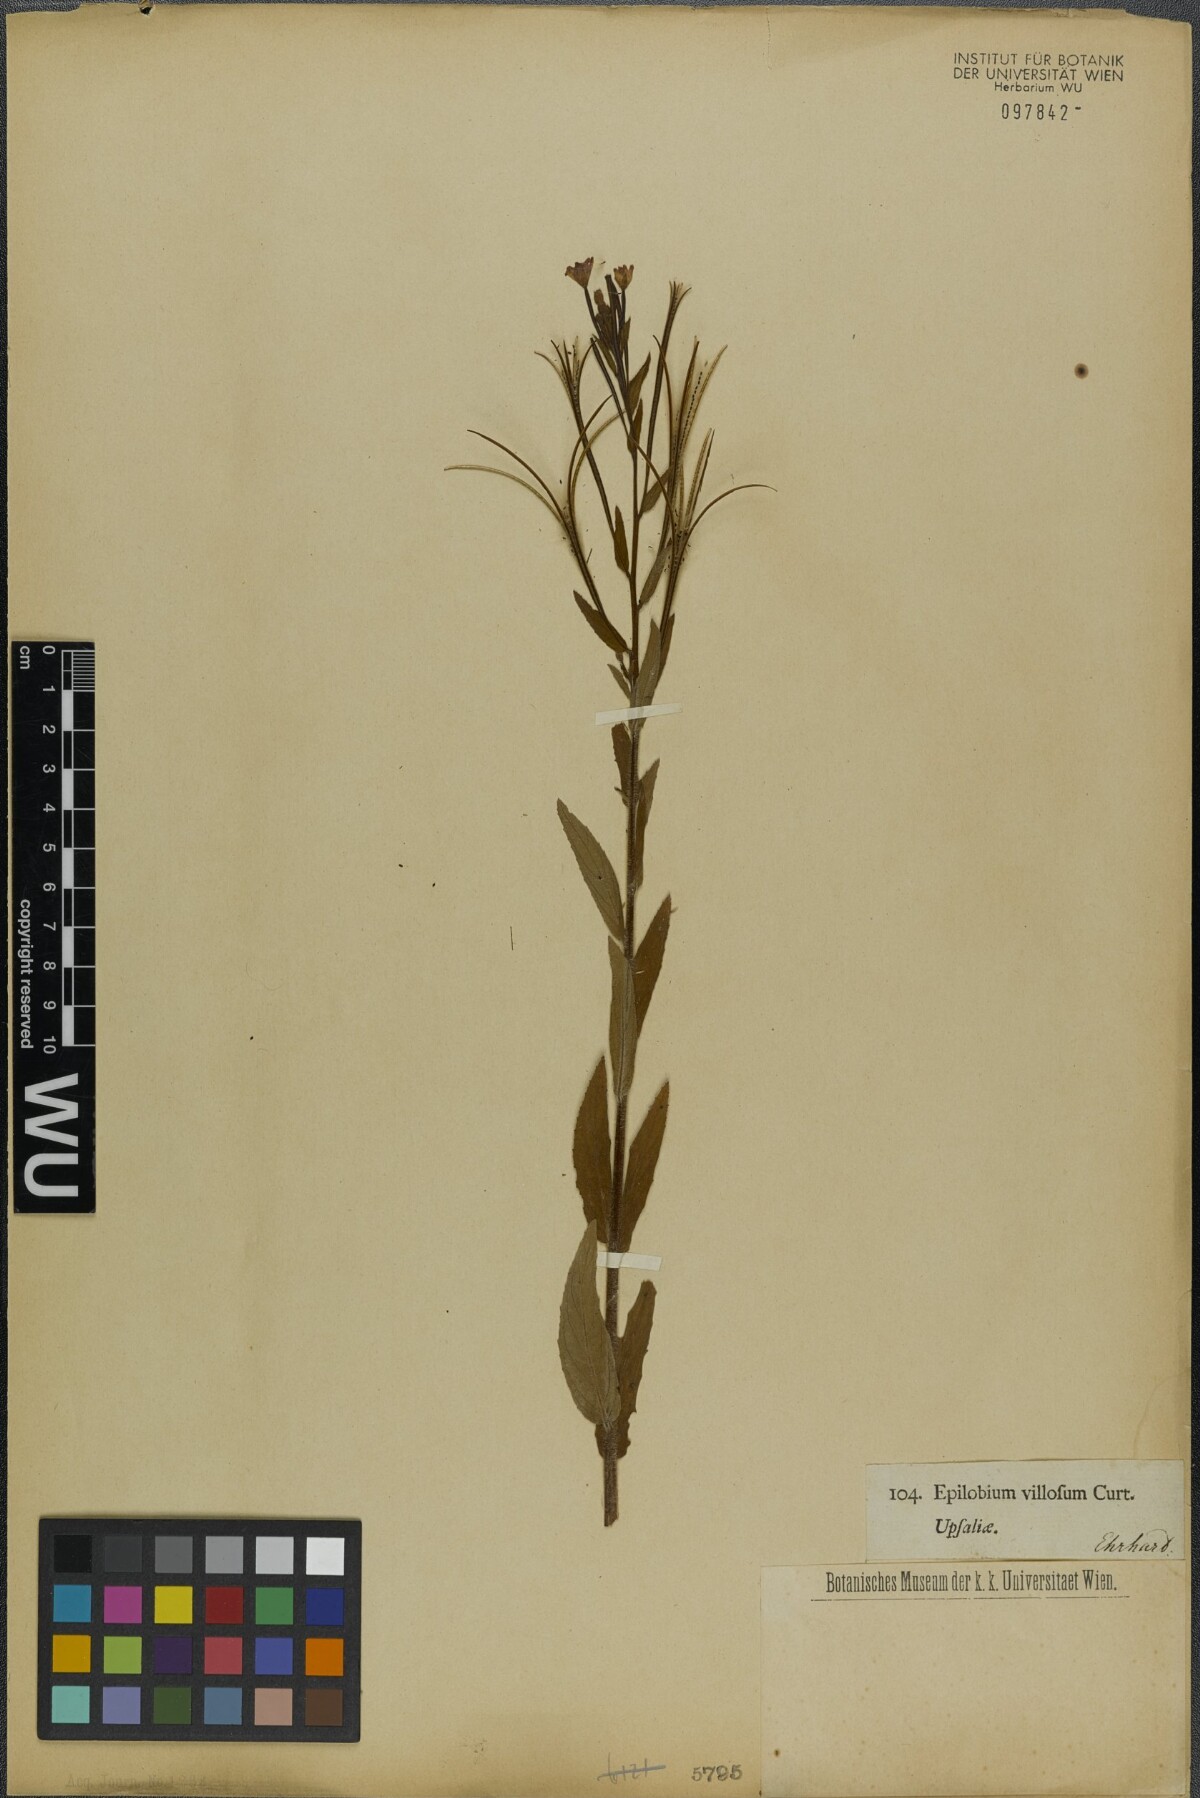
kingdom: Plantae
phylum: Tracheophyta
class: Magnoliopsida
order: Myrtales
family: Onagraceae
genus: Epilobium
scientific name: Epilobium parviflorum
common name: Hoary willowherb
